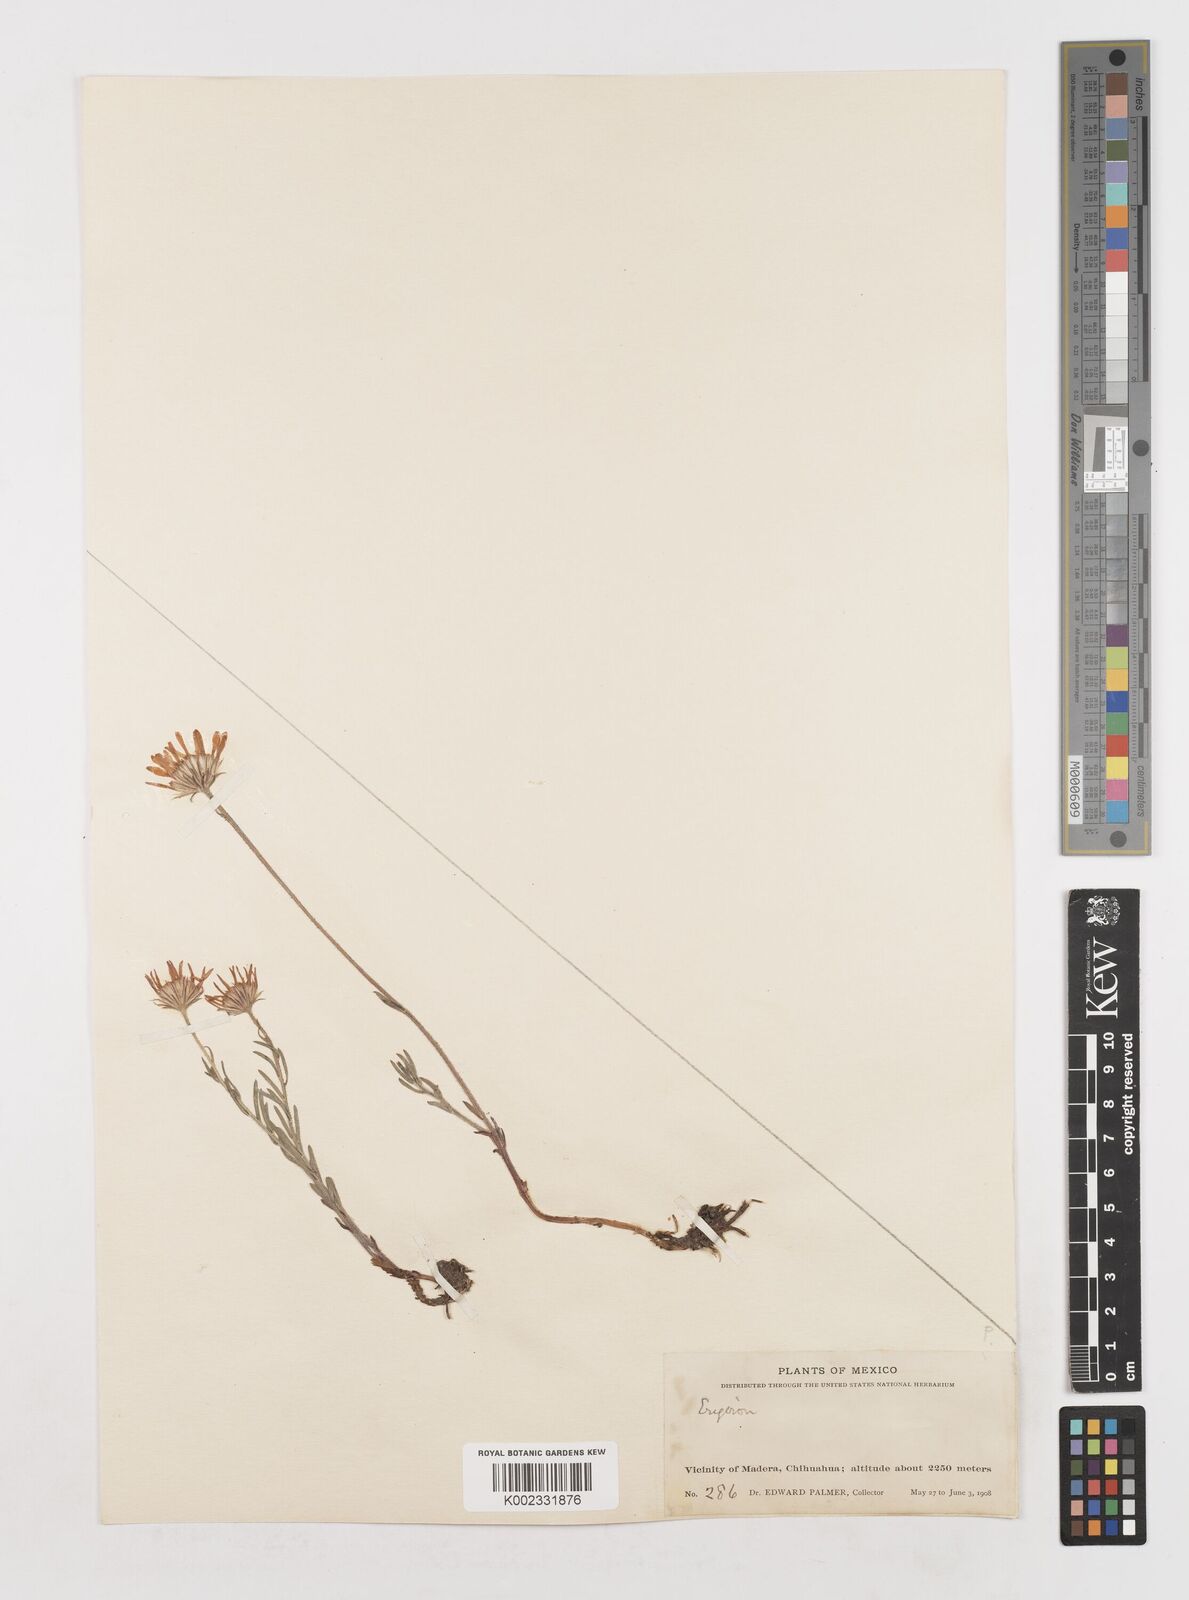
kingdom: Plantae
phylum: Tracheophyta
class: Magnoliopsida
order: Asterales
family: Asteraceae
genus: Erigeron
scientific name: Erigeron
